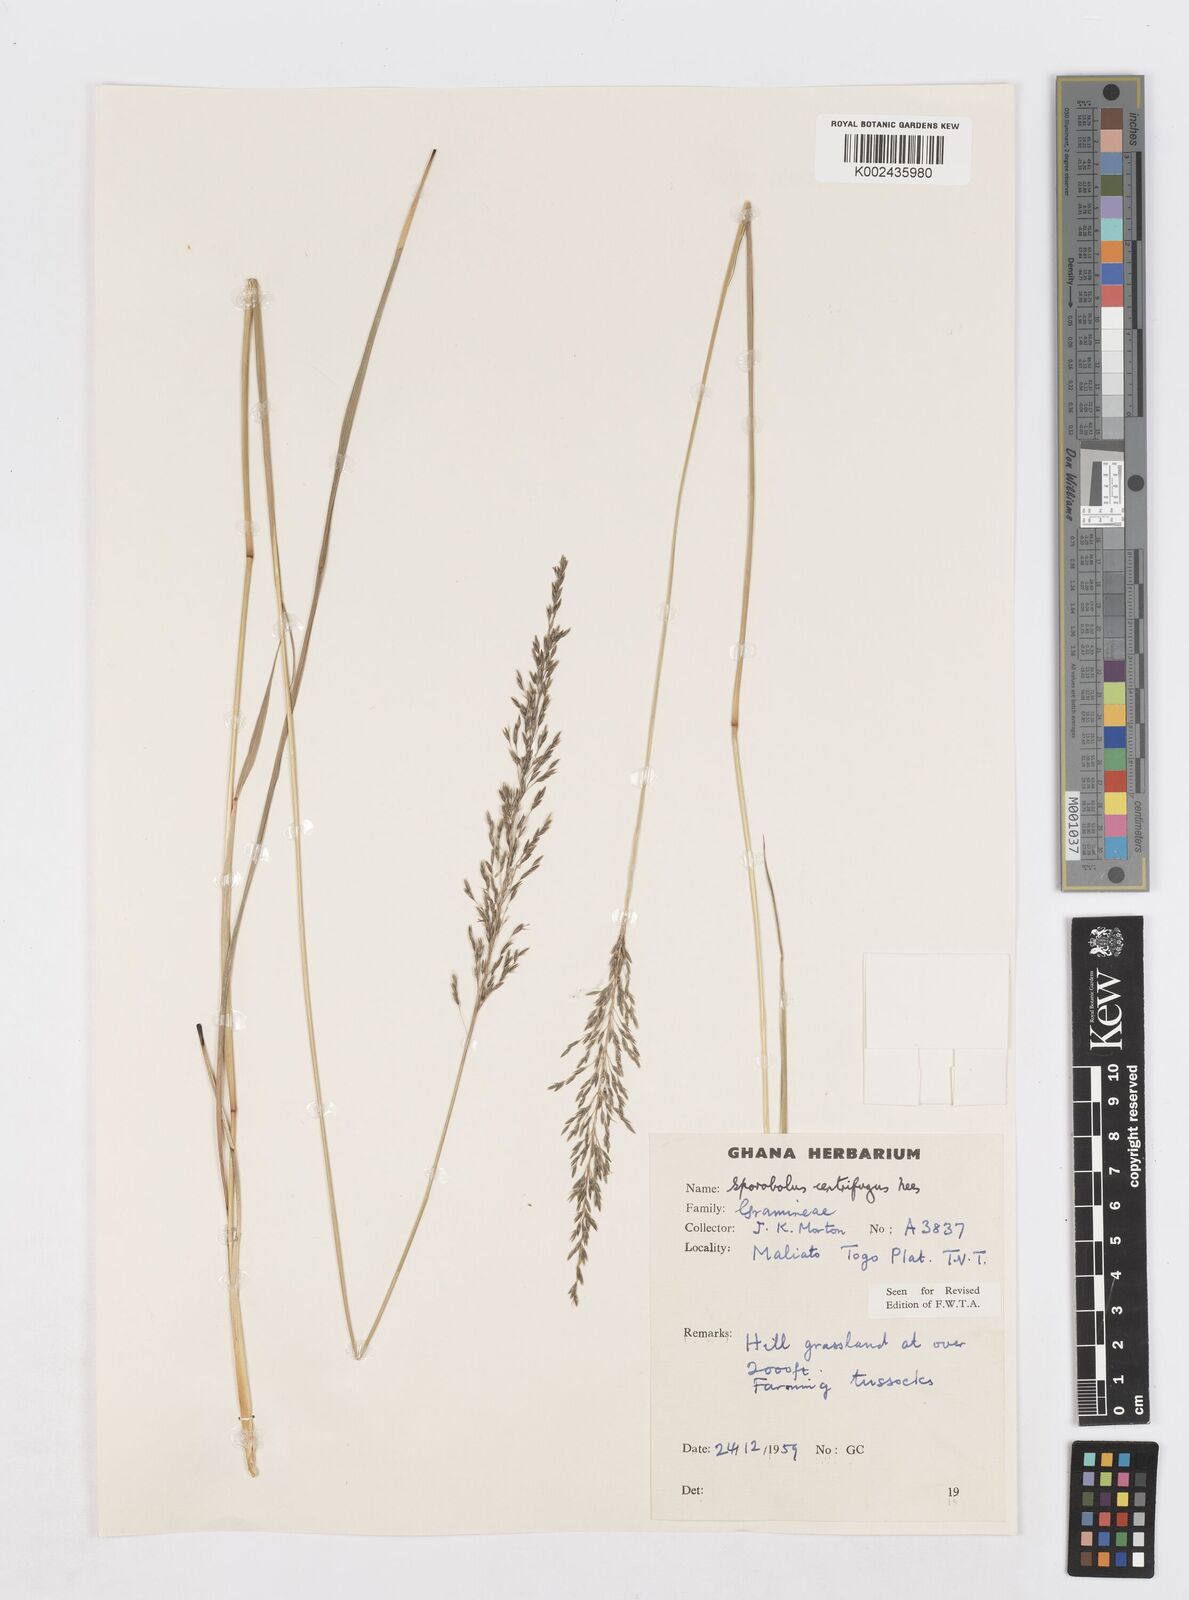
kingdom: Plantae
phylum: Tracheophyta
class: Liliopsida
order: Poales
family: Poaceae
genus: Sporobolus
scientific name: Sporobolus subulatus
